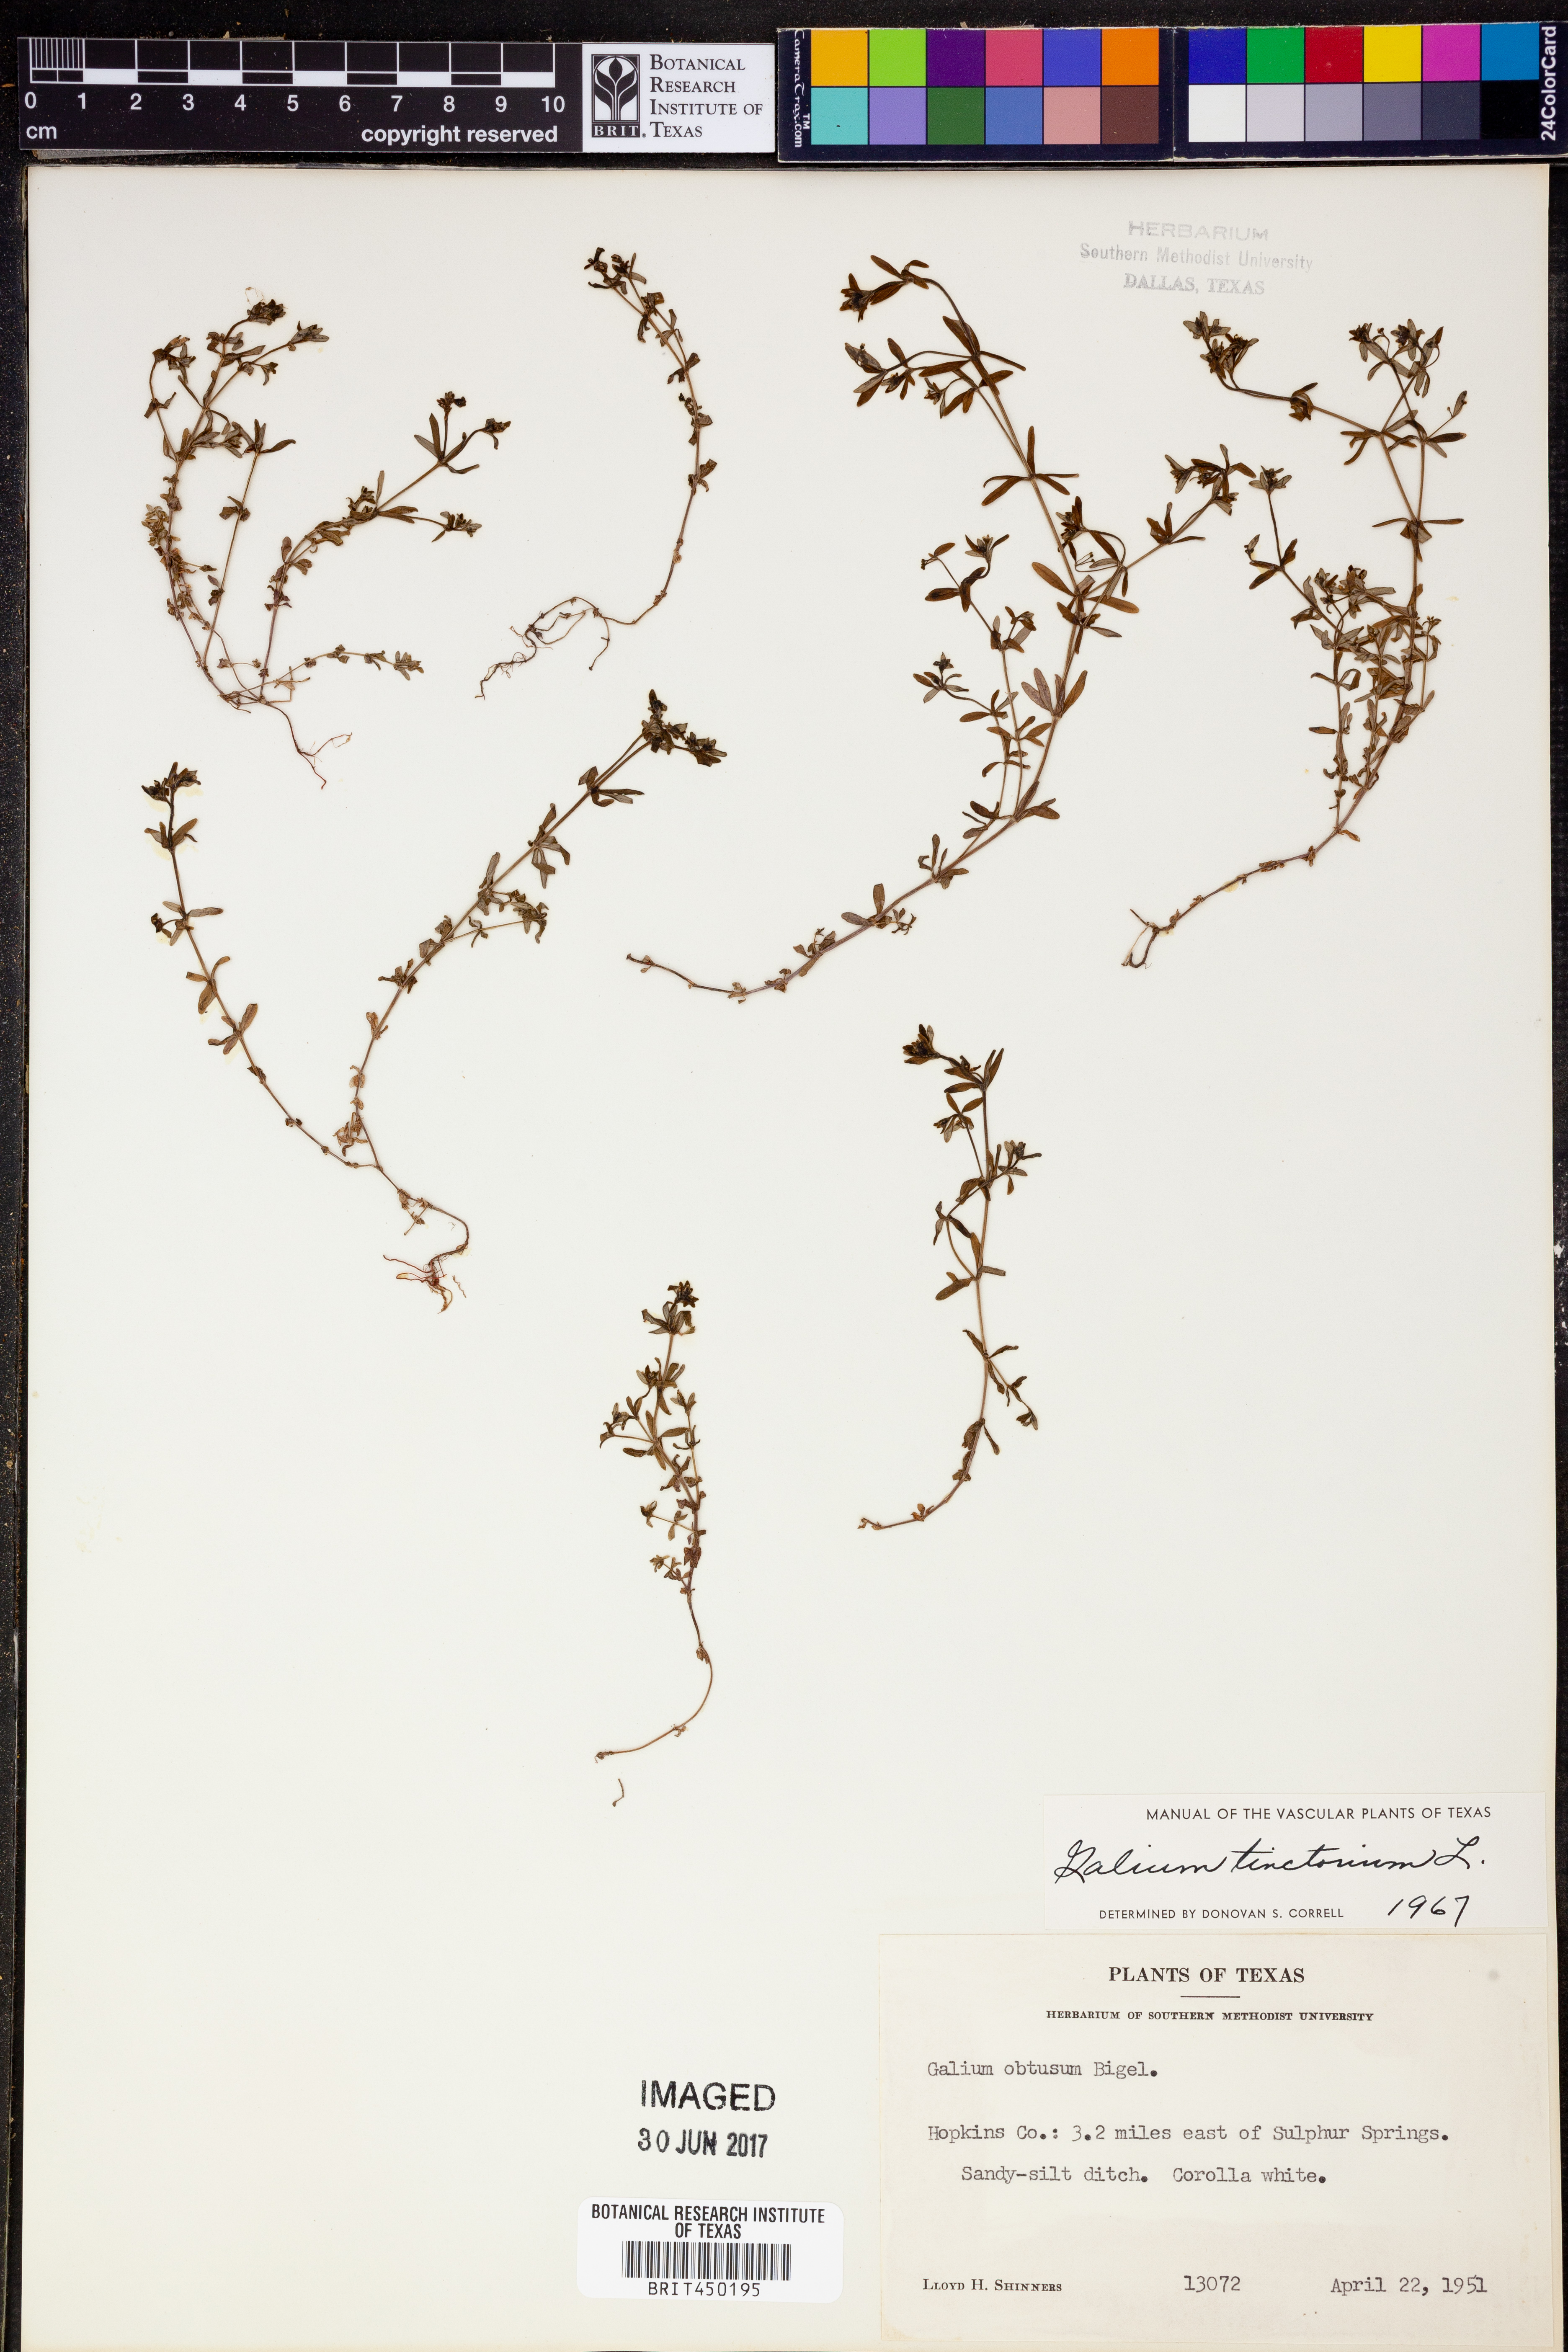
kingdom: Plantae
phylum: Tracheophyta
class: Magnoliopsida
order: Gentianales
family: Rubiaceae
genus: Asperula
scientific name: Asperula tinctoria
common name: Dyer's woodruff
